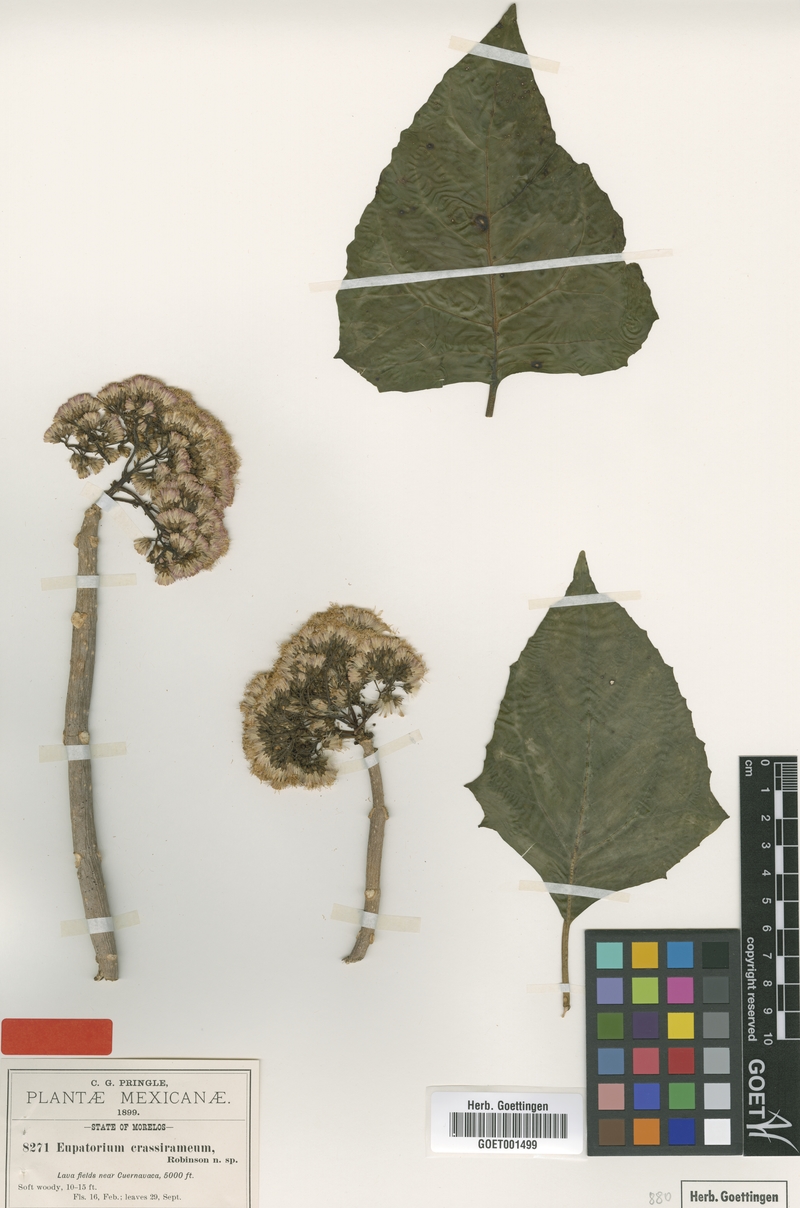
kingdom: Plantae
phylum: Tracheophyta
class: Magnoliopsida
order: Asterales
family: Asteraceae
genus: Ageratina
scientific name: Ageratina crassiramea
